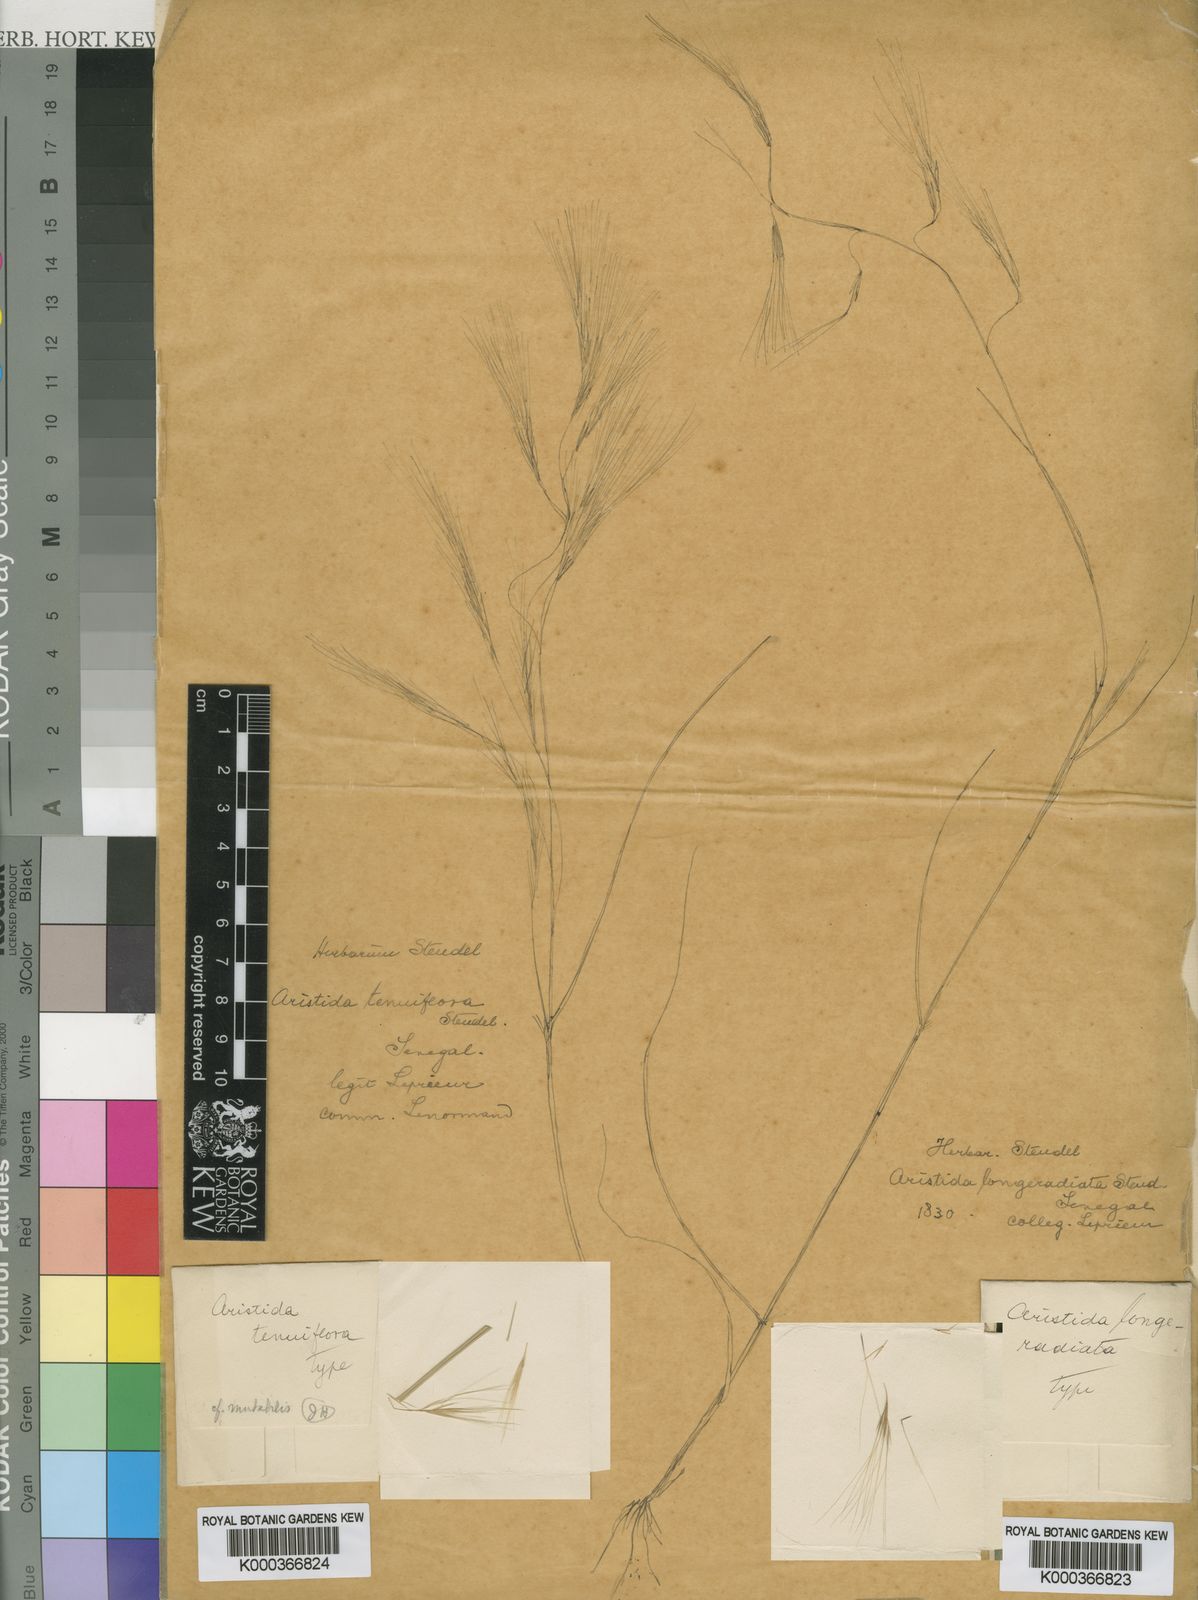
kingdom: Plantae
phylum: Tracheophyta
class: Liliopsida
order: Poales
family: Poaceae
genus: Aristida
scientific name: Aristida mutabilis
